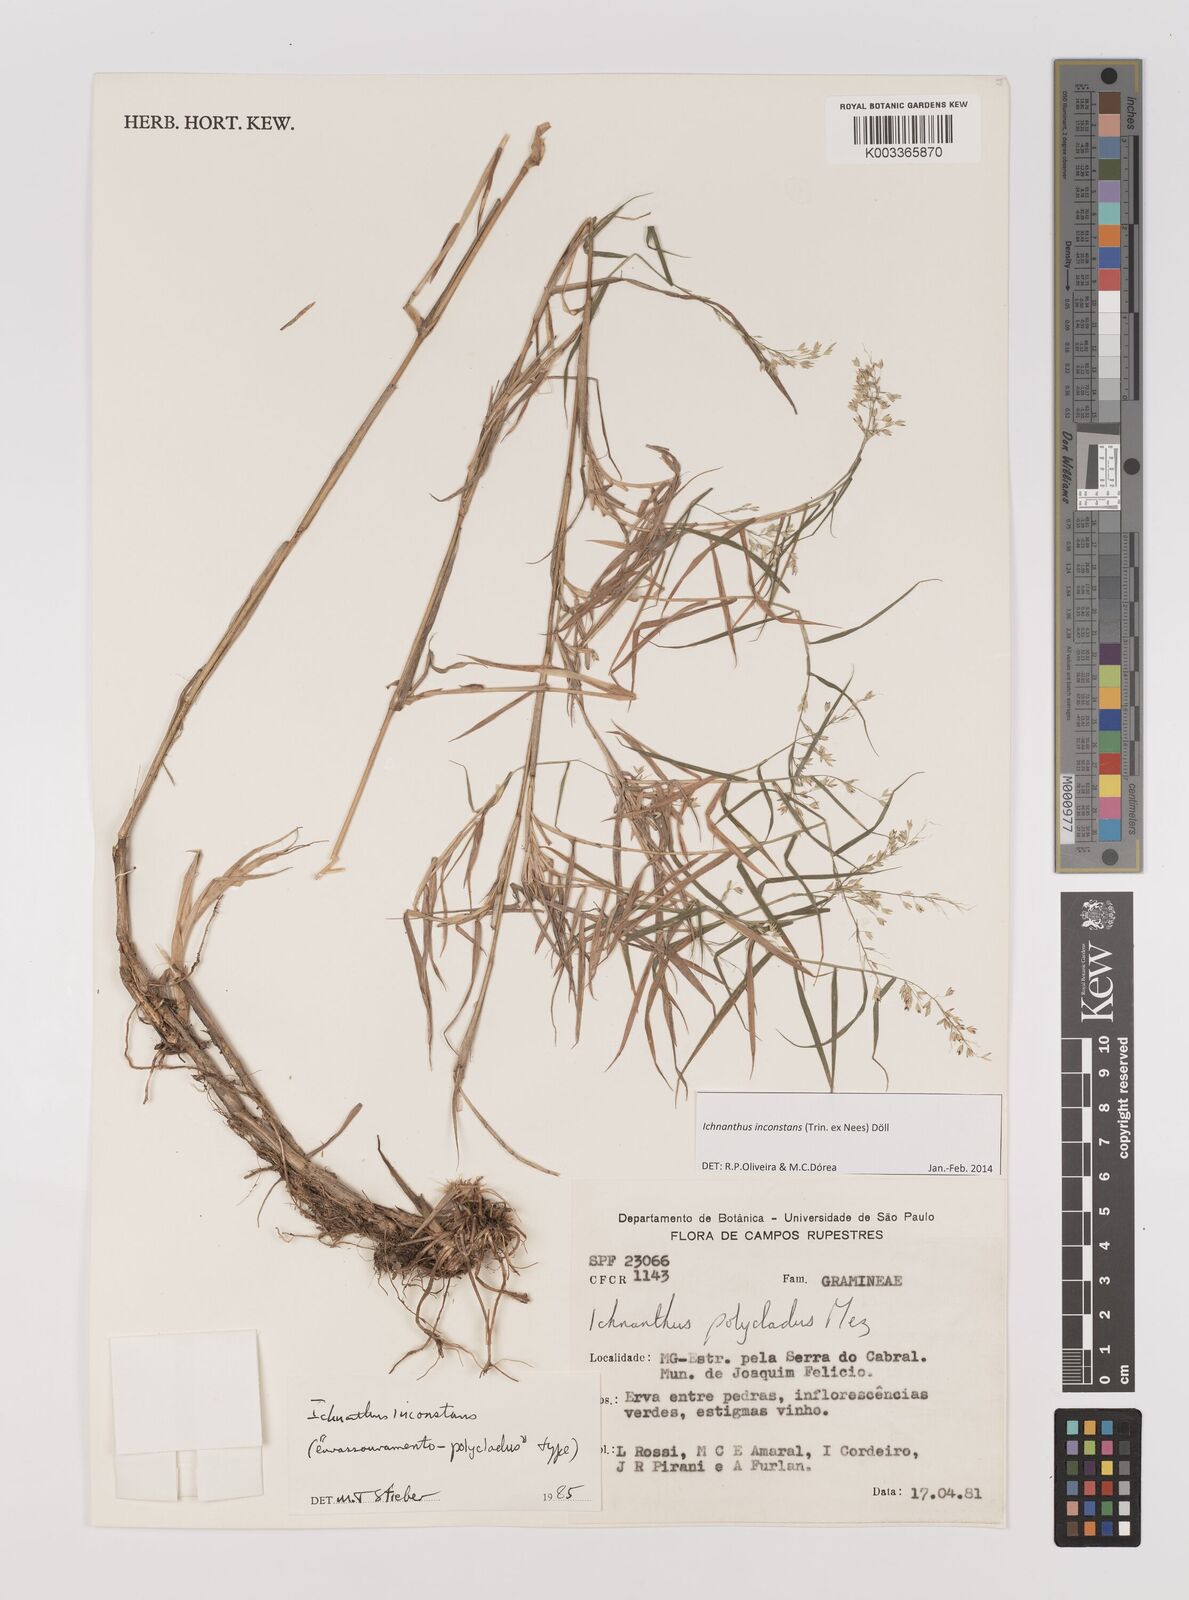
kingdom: Plantae
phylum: Tracheophyta
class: Liliopsida
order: Poales
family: Poaceae
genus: Ichnanthus
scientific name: Ichnanthus inconstans
